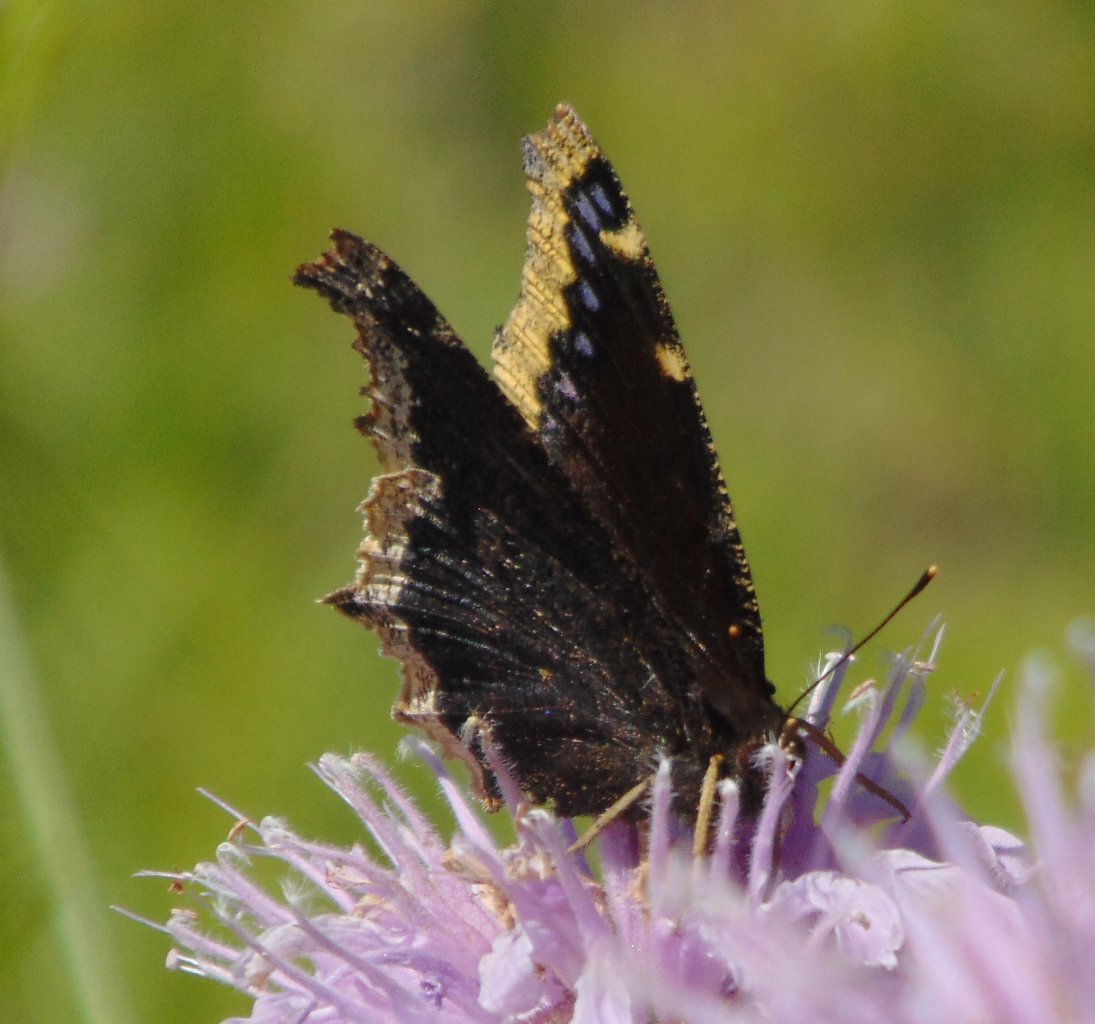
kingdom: Animalia
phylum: Arthropoda
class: Insecta
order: Lepidoptera
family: Nymphalidae
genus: Nymphalis
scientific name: Nymphalis antiopa
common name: Mourning Cloak
